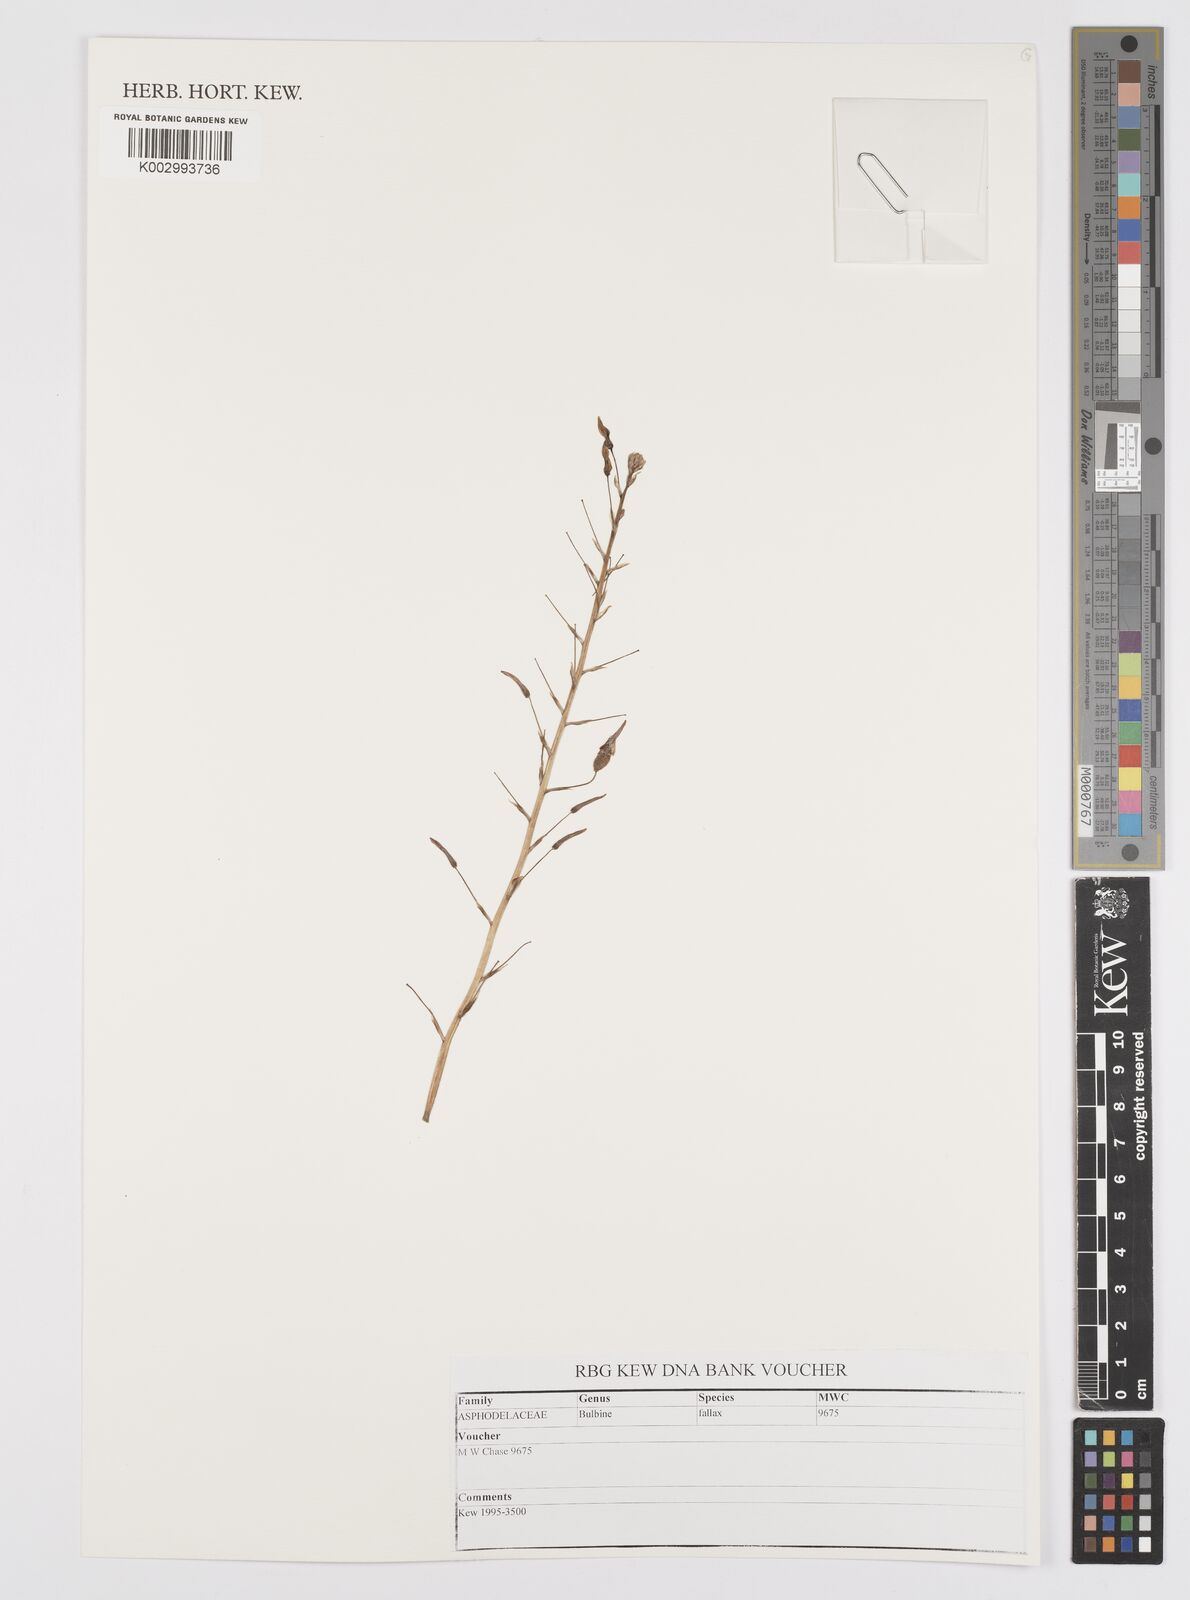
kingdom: Plantae
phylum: Tracheophyta
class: Liliopsida
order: Asparagales
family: Asphodelaceae
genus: Bulbine
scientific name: Bulbine fallax
